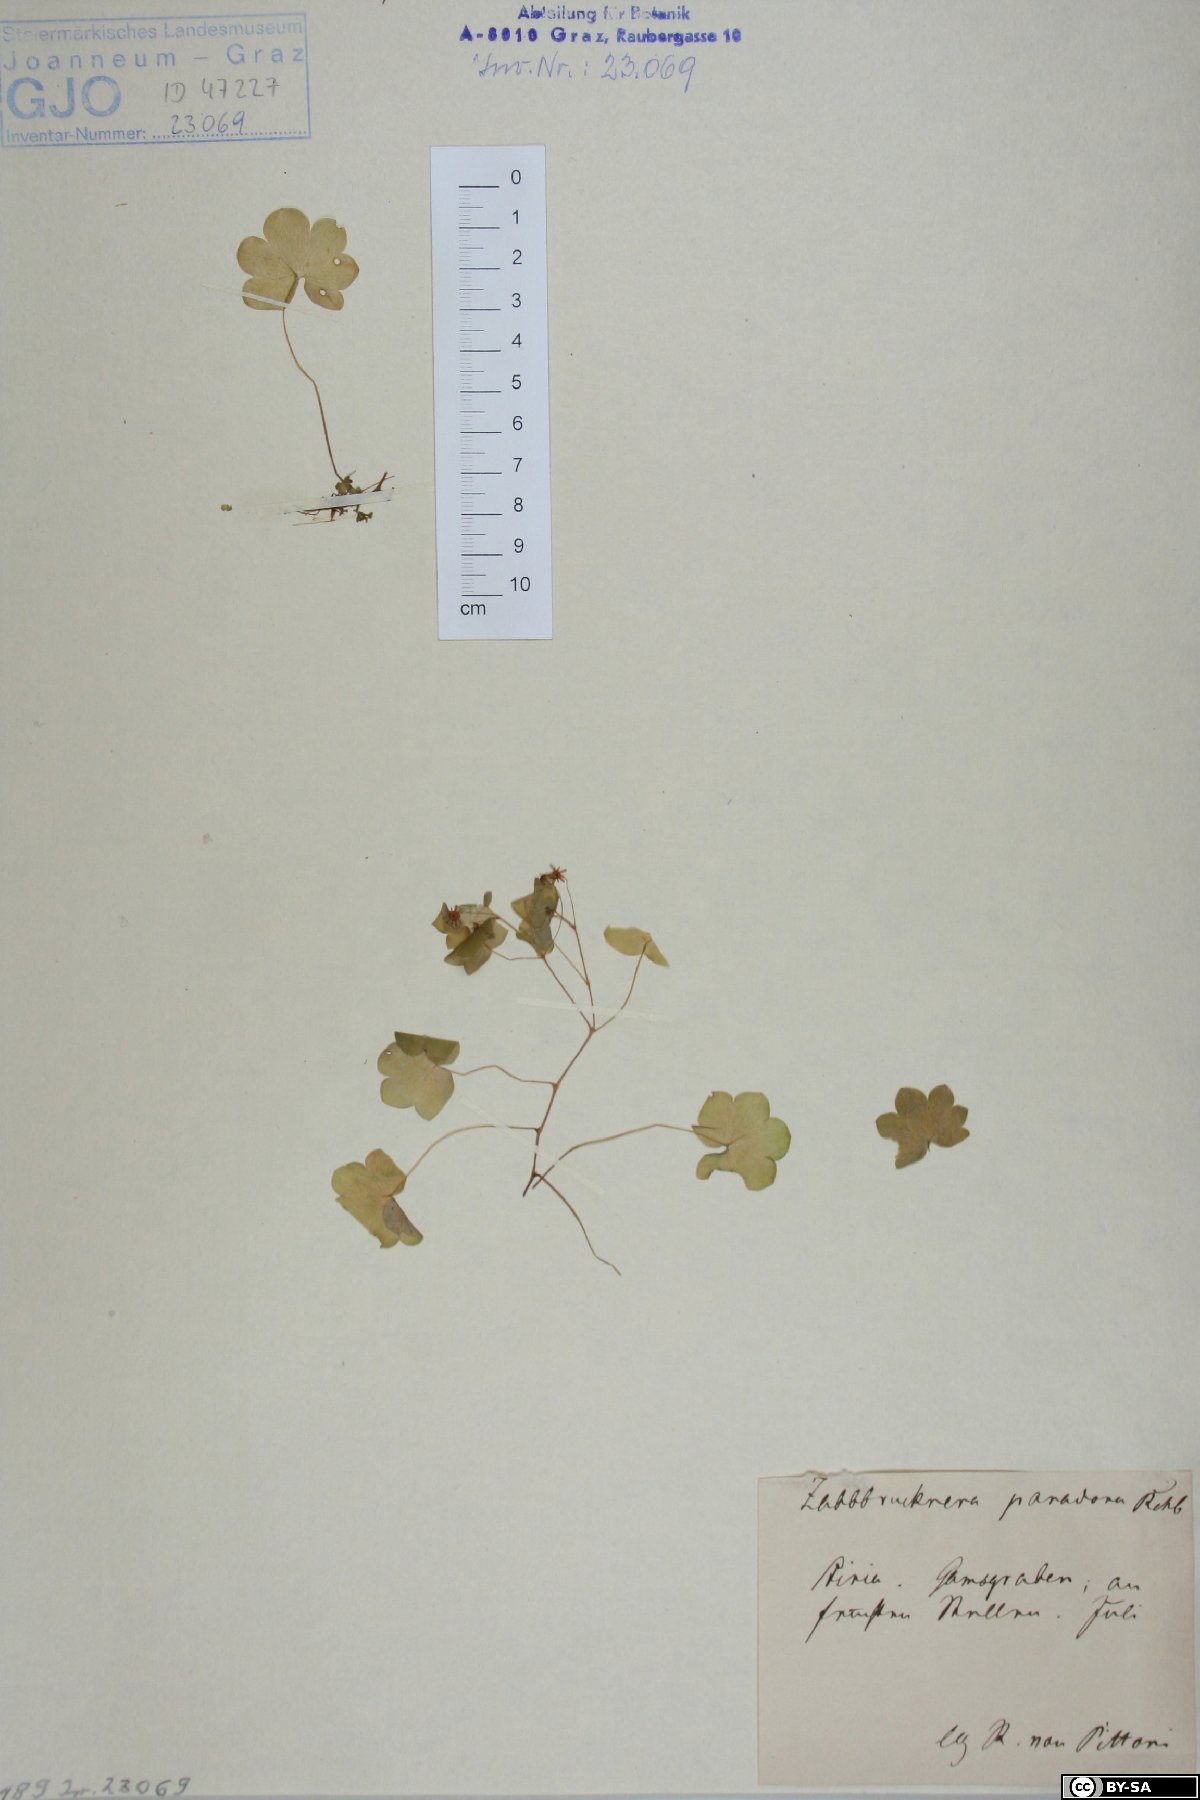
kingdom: Plantae
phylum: Tracheophyta
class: Magnoliopsida
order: Saxifragales
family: Saxifragaceae
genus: Saxifraga
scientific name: Saxifraga paradoxa
